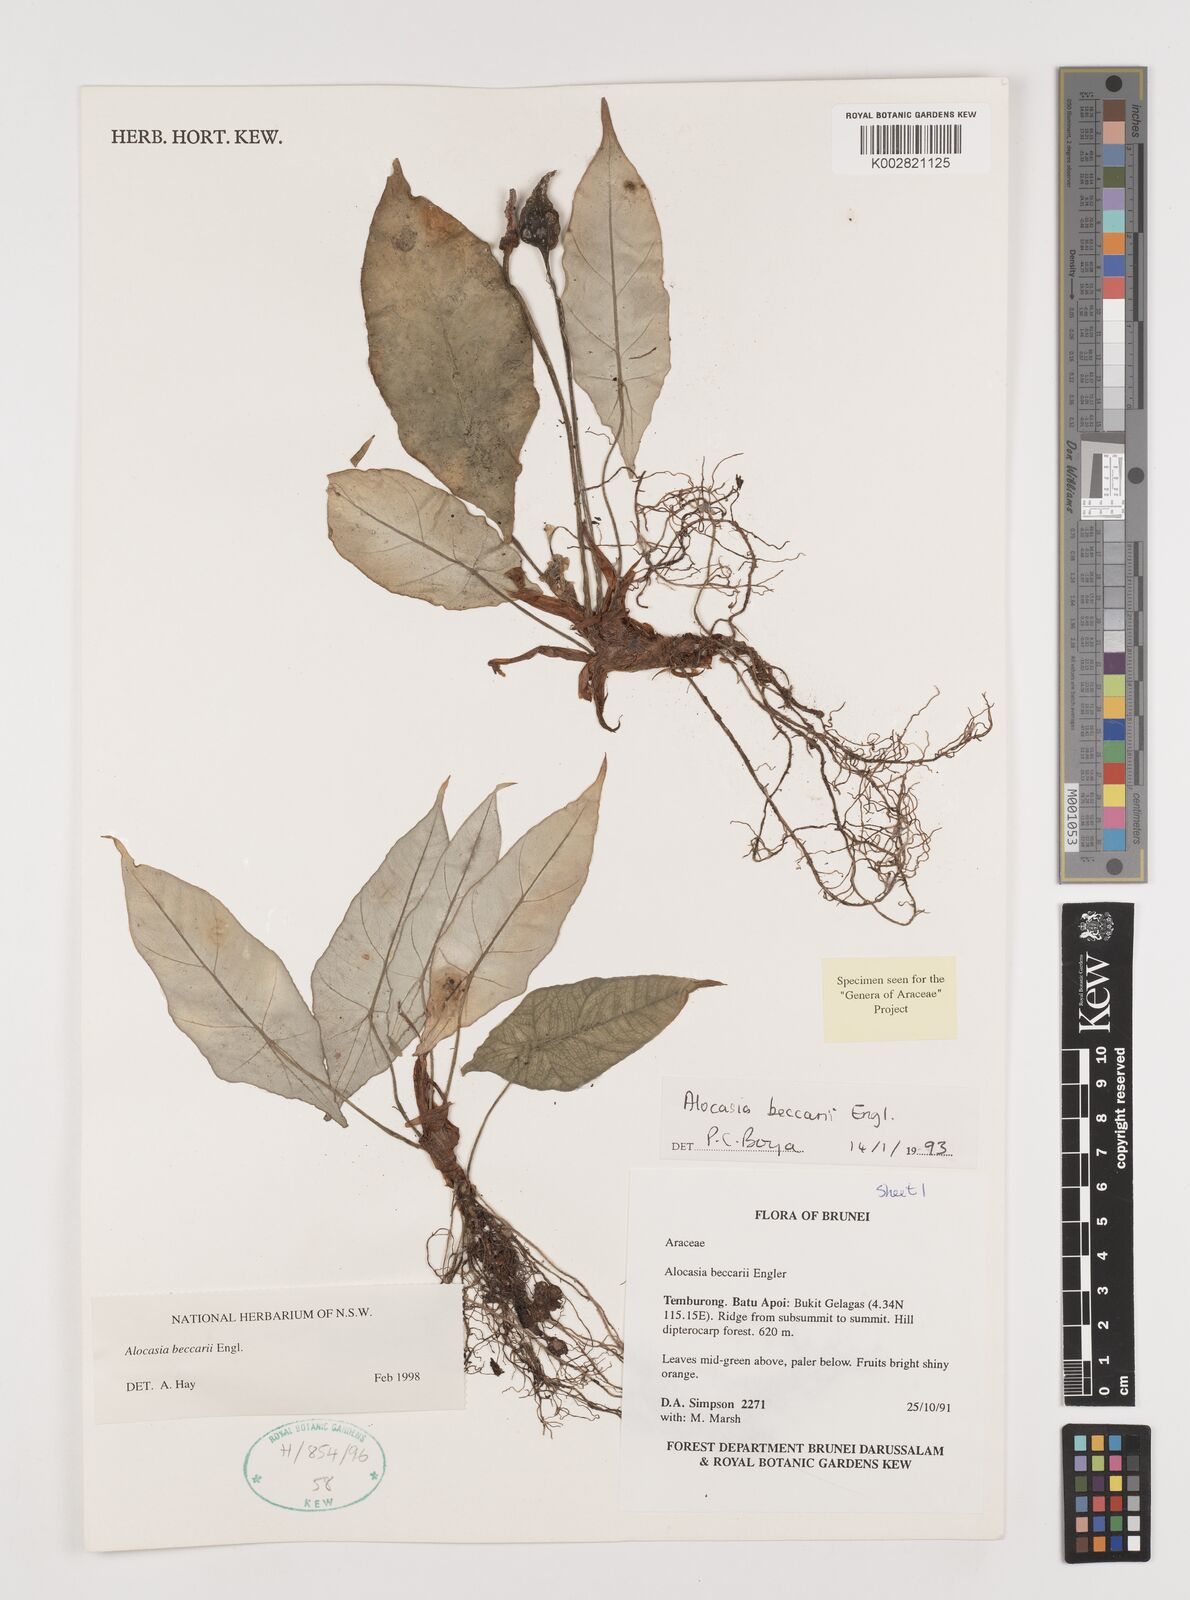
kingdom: Plantae
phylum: Tracheophyta
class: Liliopsida
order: Alismatales
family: Araceae
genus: Alocasia
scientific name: Alocasia beccarii
